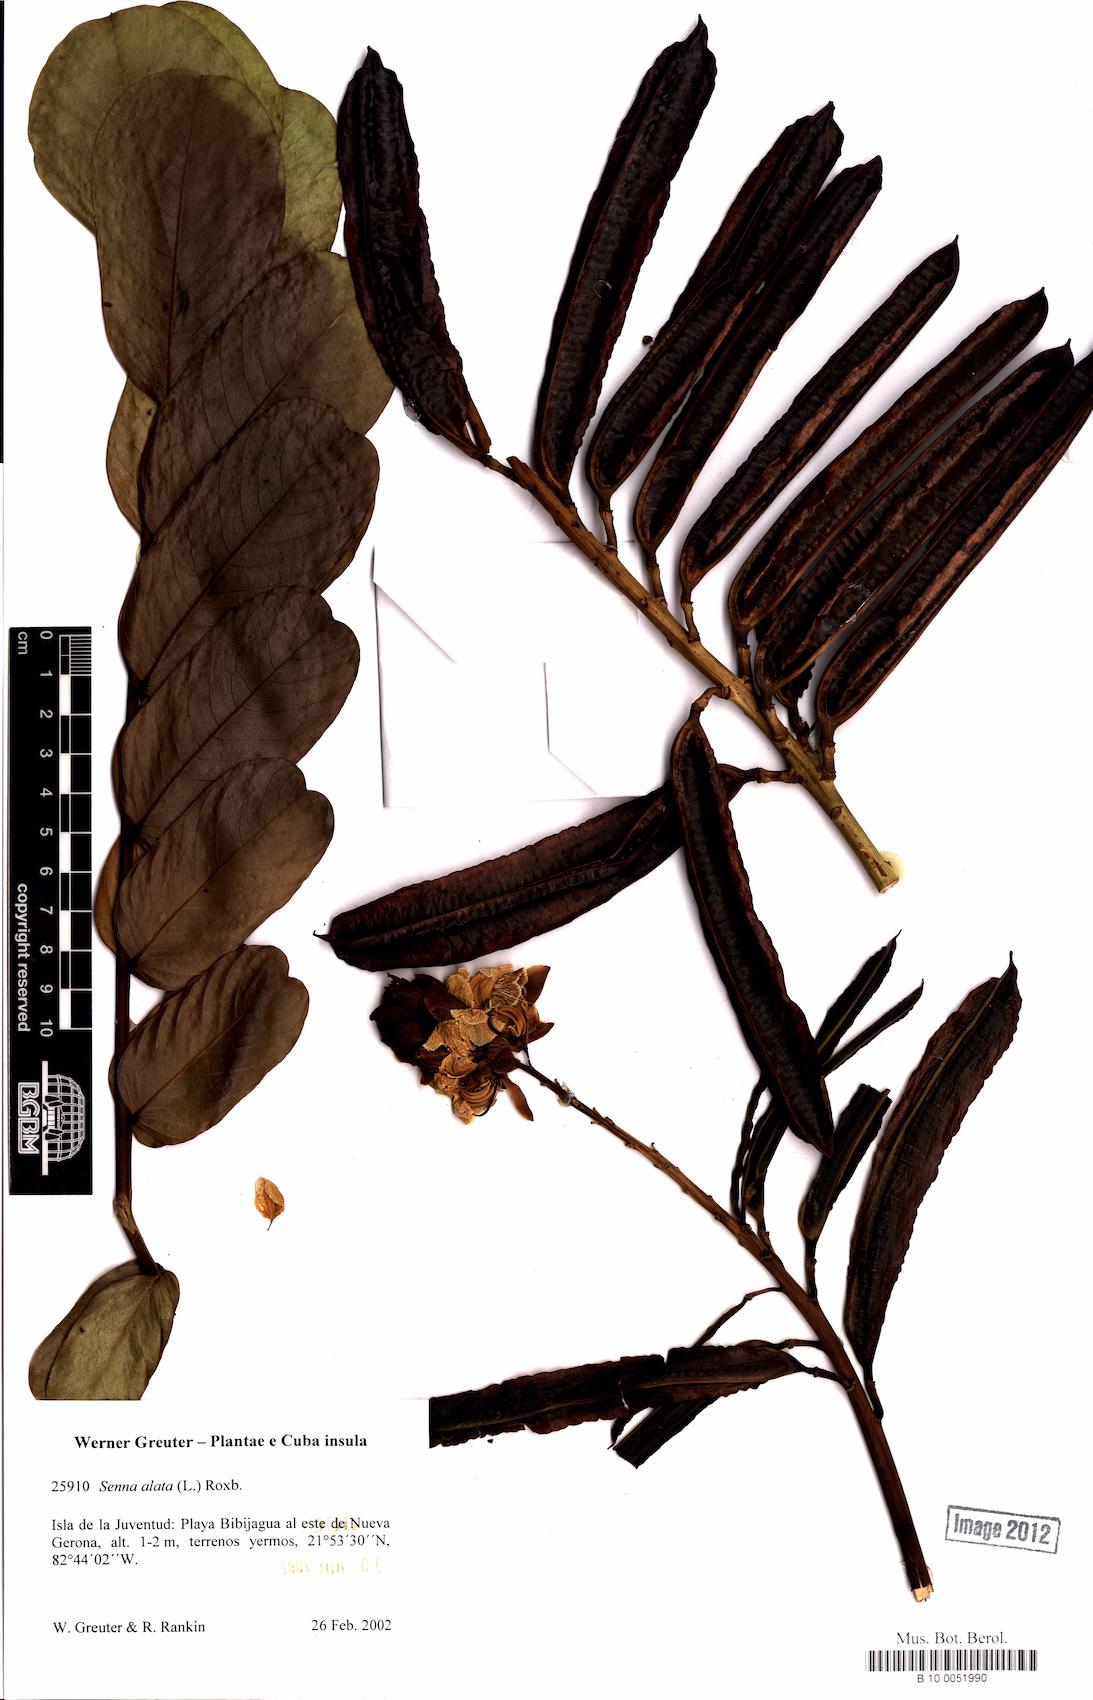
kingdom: Plantae
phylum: Tracheophyta
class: Magnoliopsida
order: Fabales
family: Fabaceae
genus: Senna
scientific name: Senna alata
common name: Emperor's candlesticks
